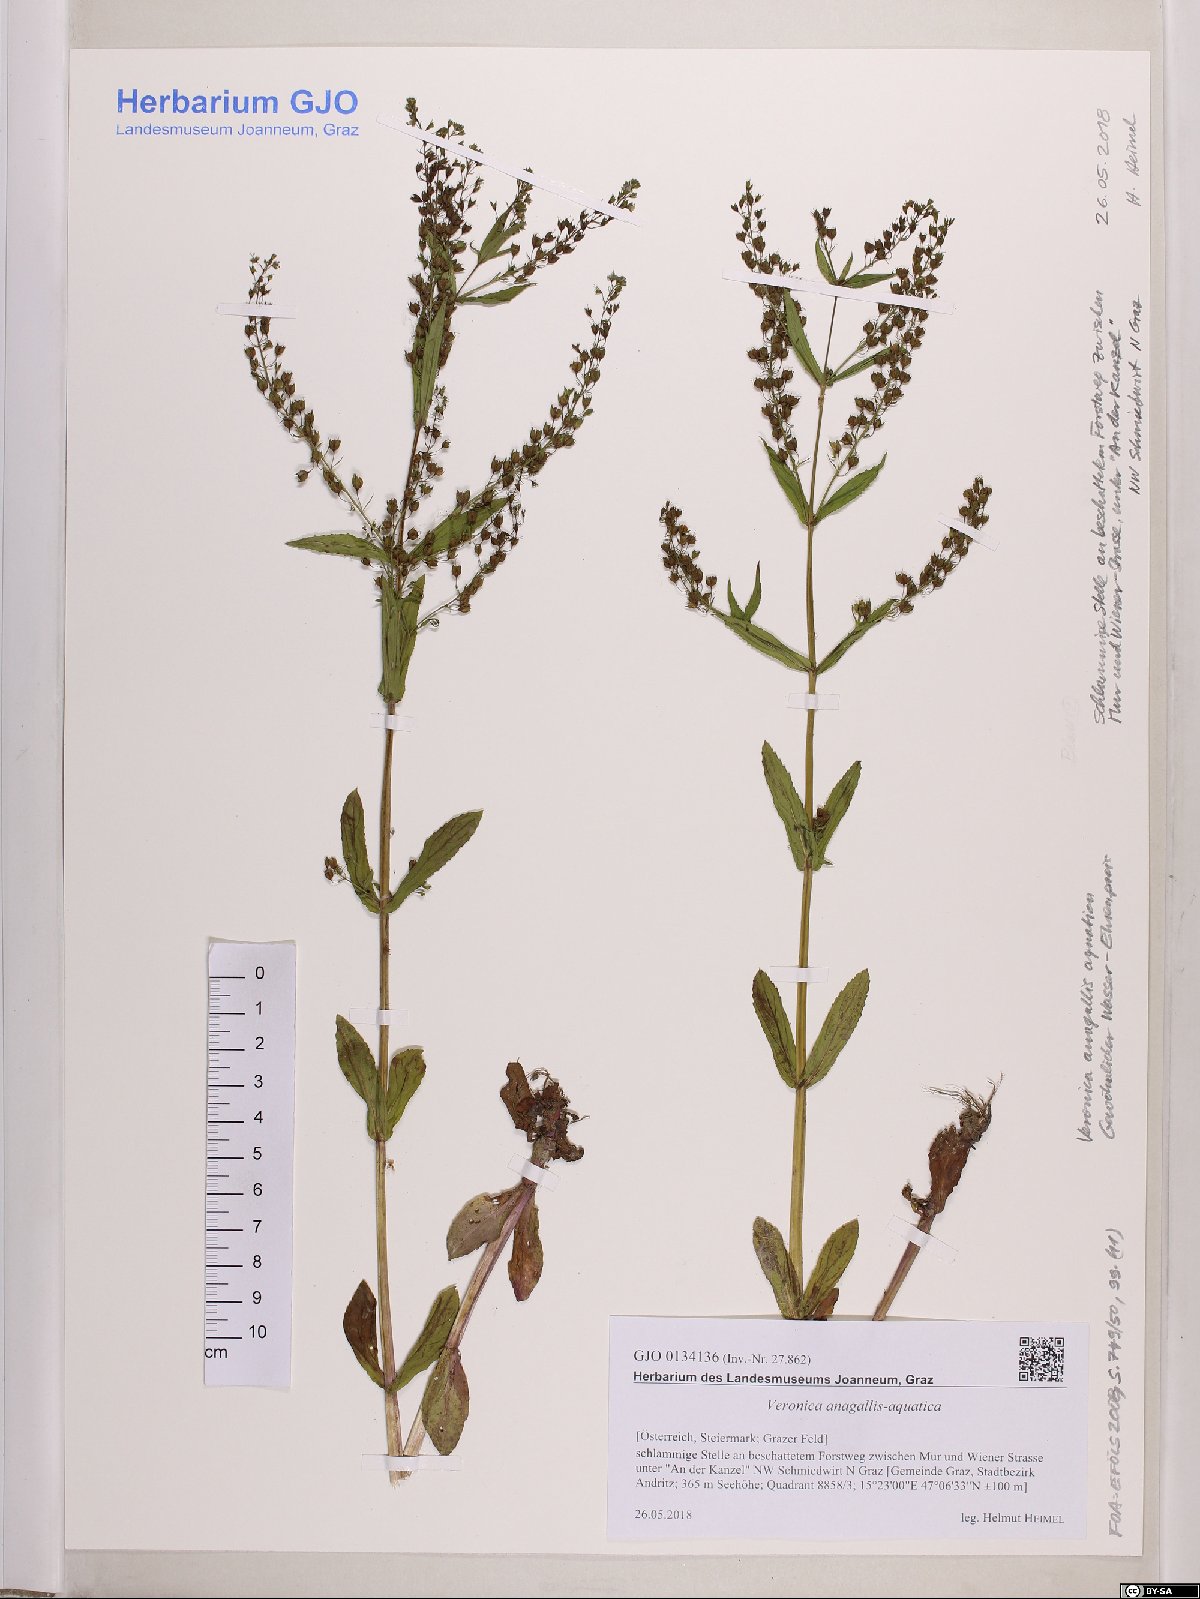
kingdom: Plantae
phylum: Tracheophyta
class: Magnoliopsida
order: Lamiales
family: Plantaginaceae
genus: Veronica
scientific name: Veronica anagallis-aquatica
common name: Water speedwell
